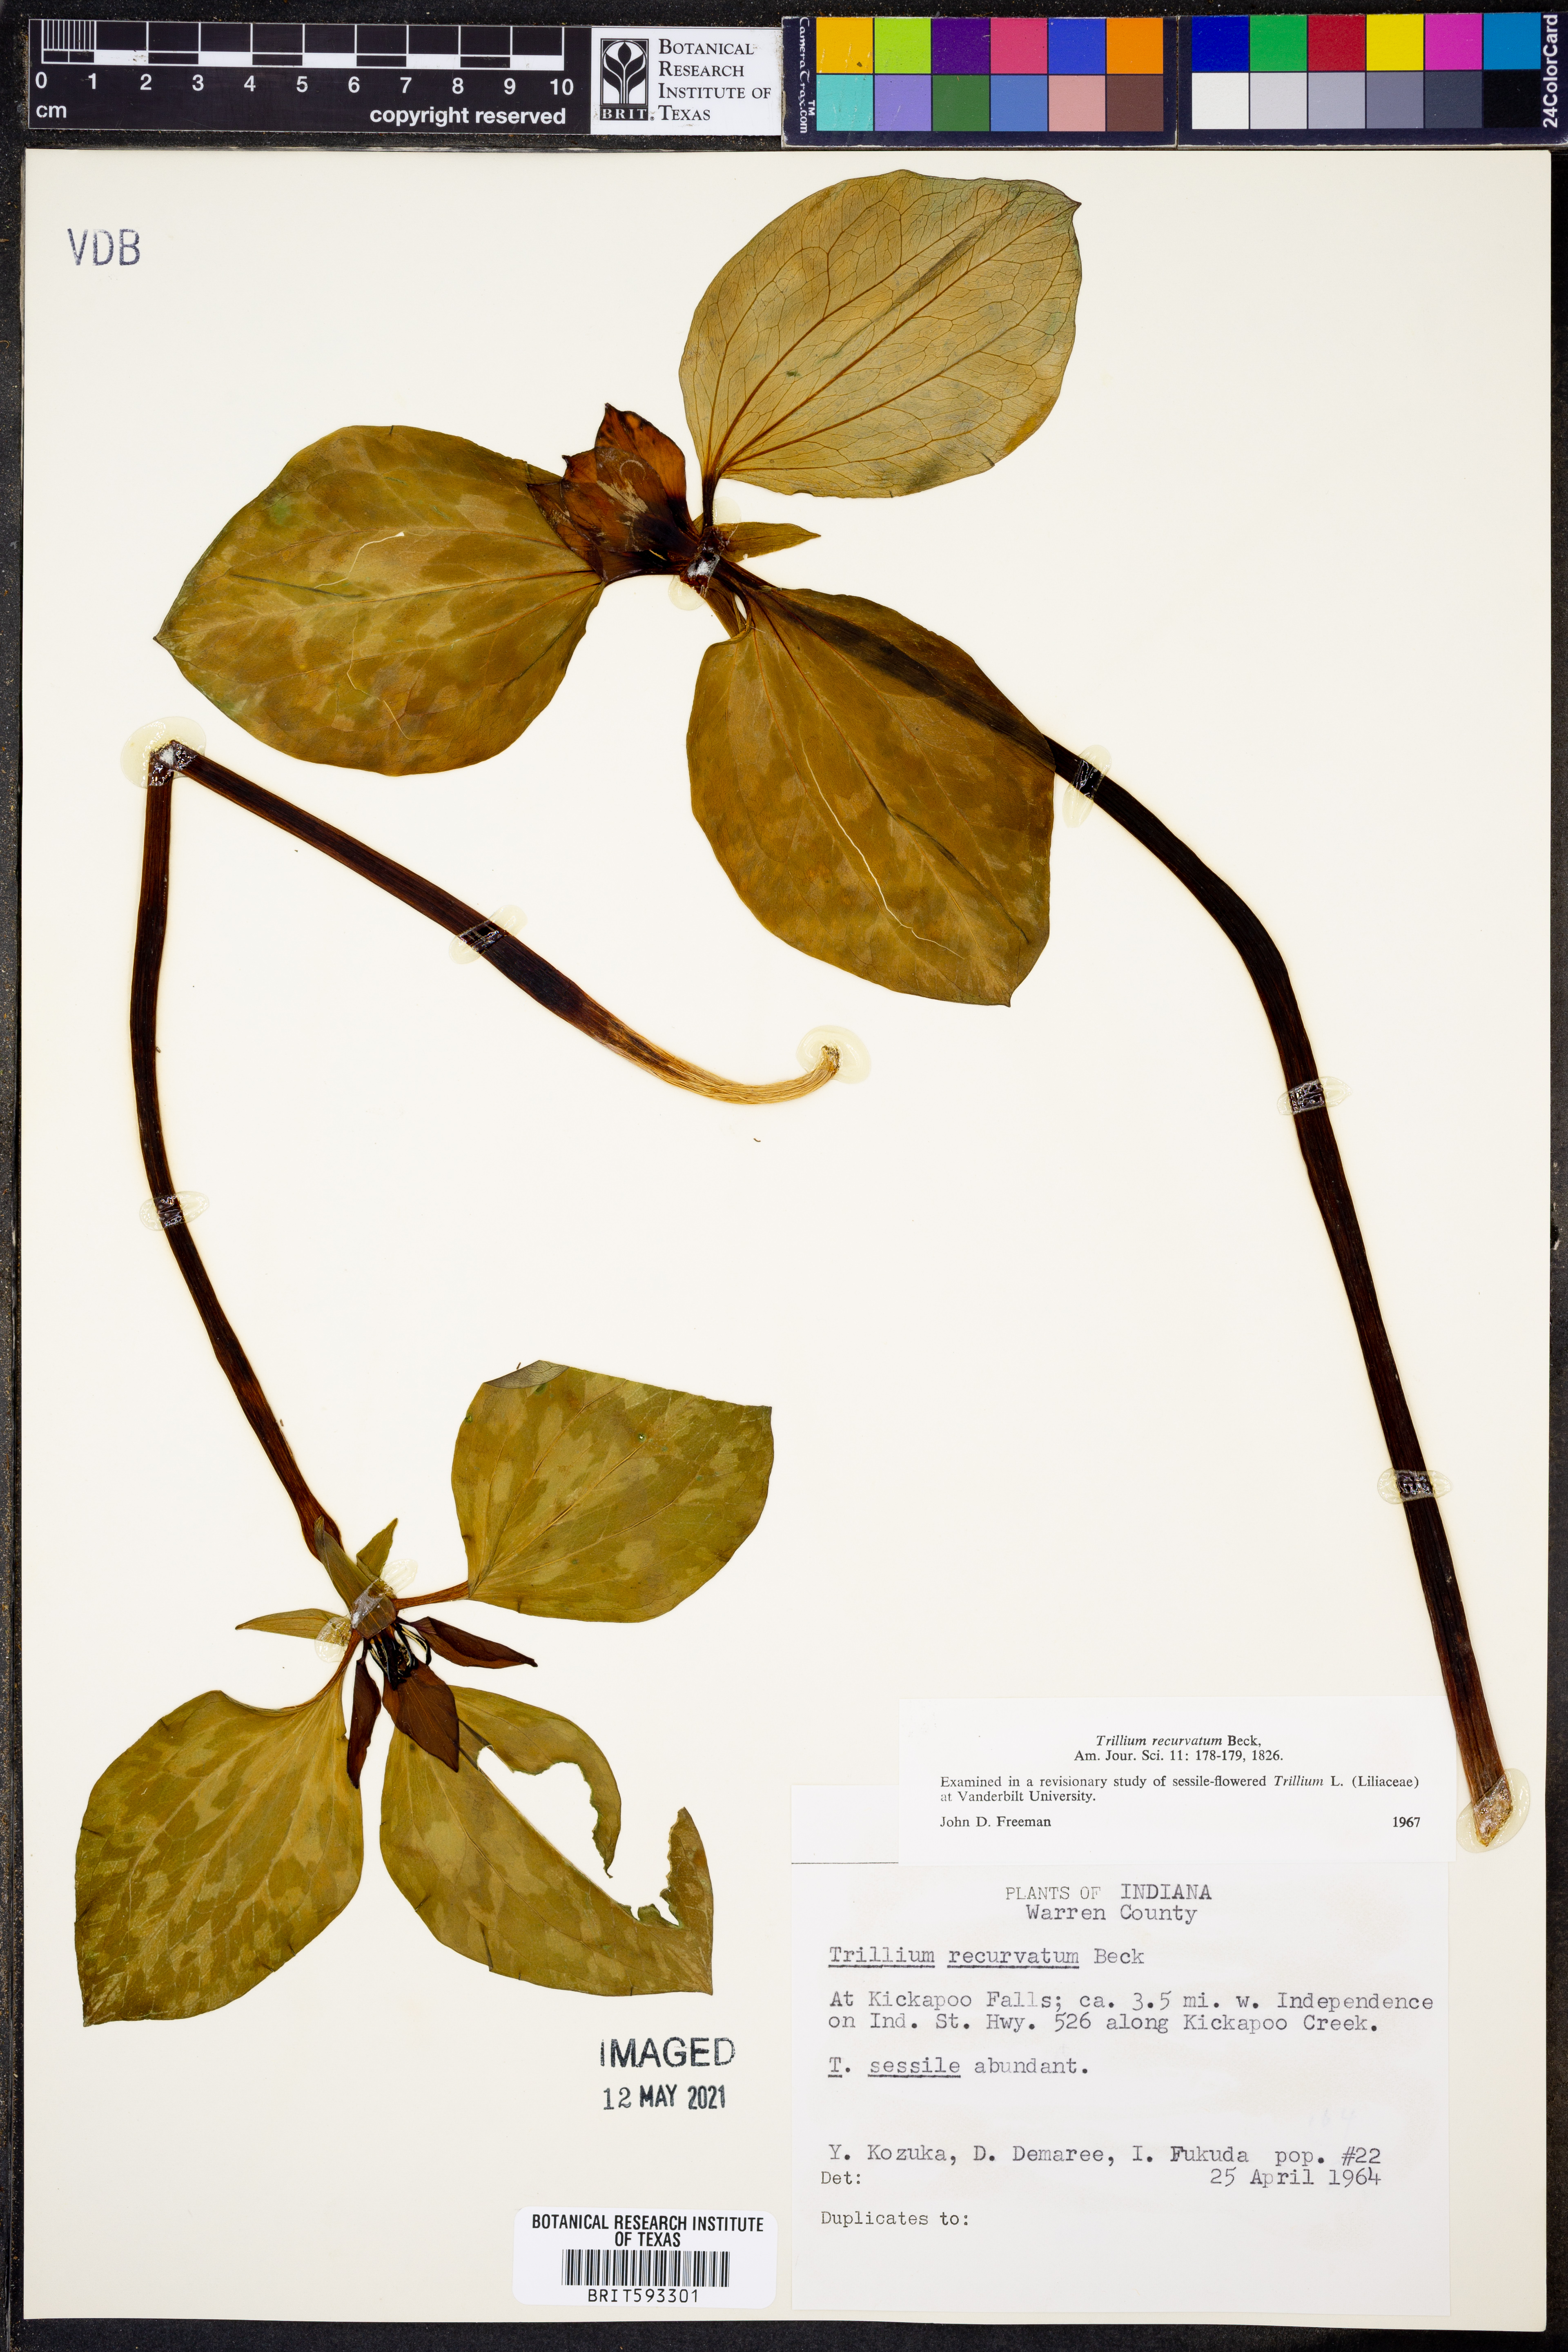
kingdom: Plantae
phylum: Tracheophyta
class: Liliopsida
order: Liliales
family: Melanthiaceae
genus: Trillium
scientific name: Trillium recurvatum
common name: Bloody butcher
